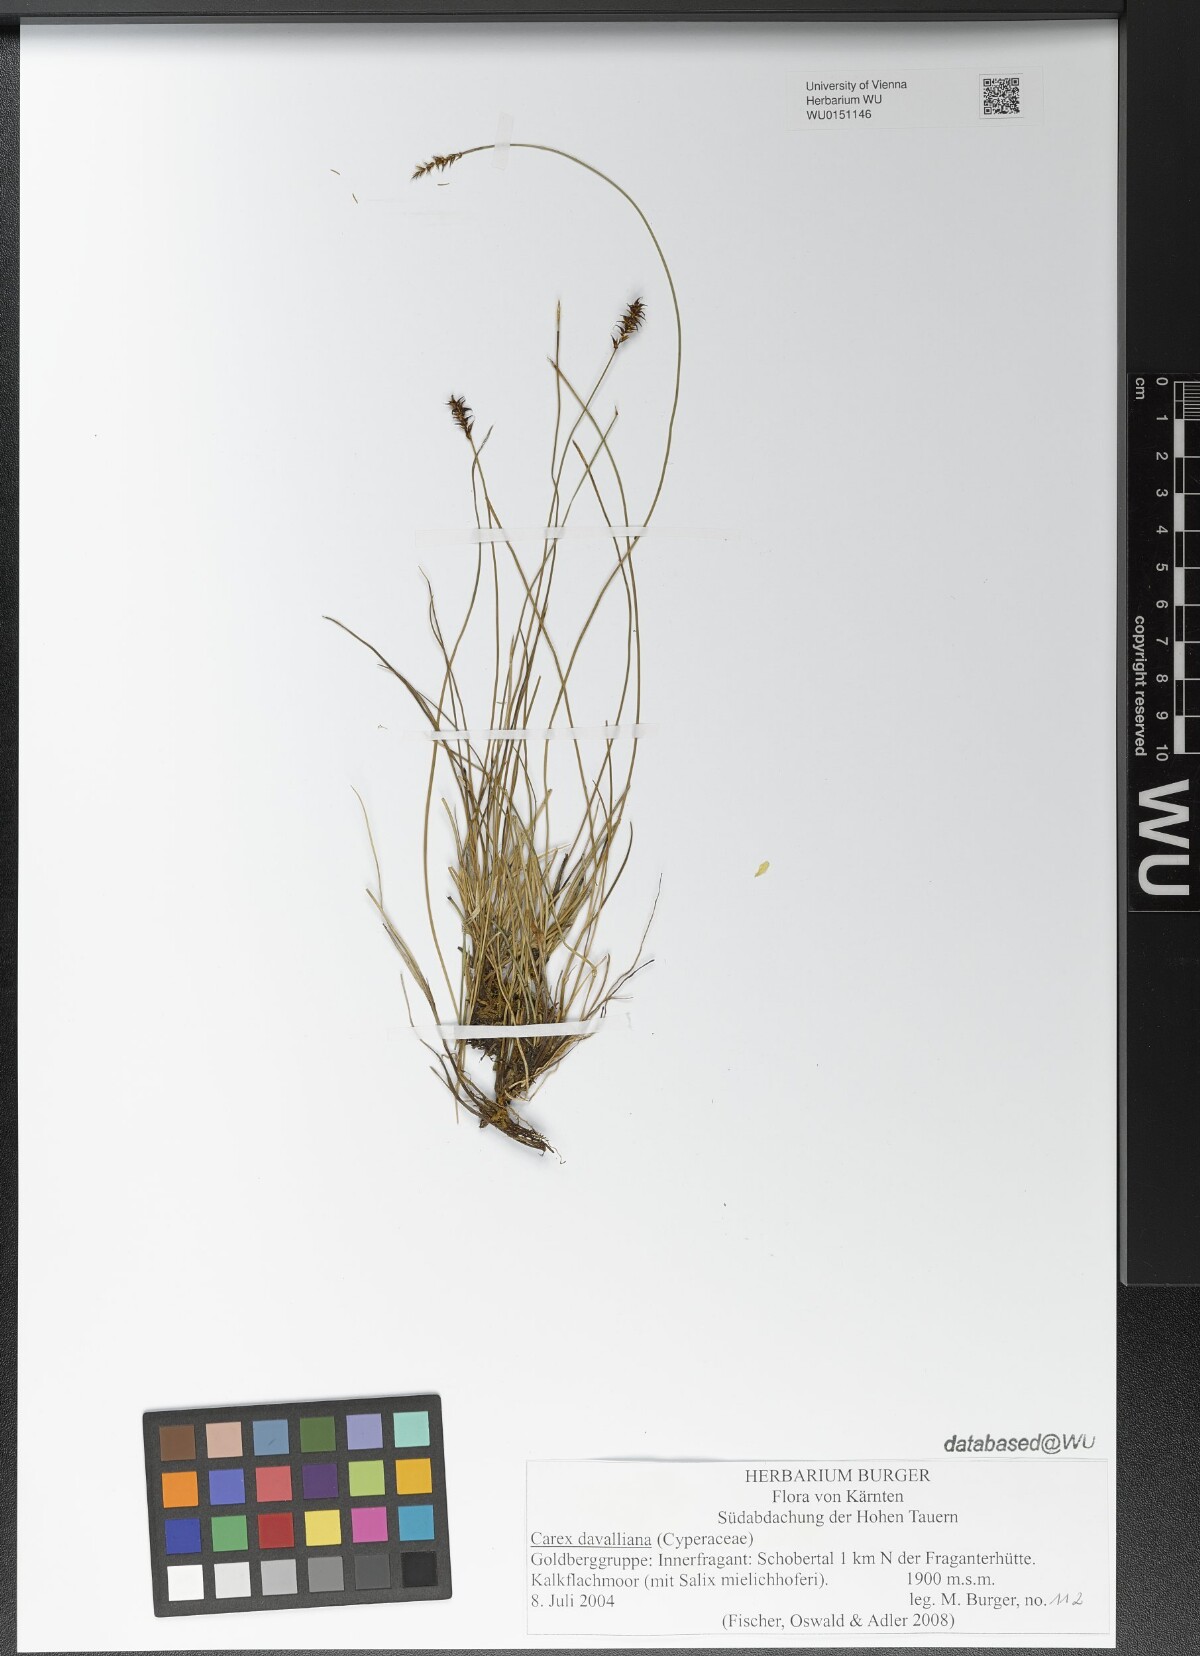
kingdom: Plantae
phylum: Tracheophyta
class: Liliopsida
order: Poales
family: Cyperaceae
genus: Carex
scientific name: Carex davalliana
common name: Davall's sedge
